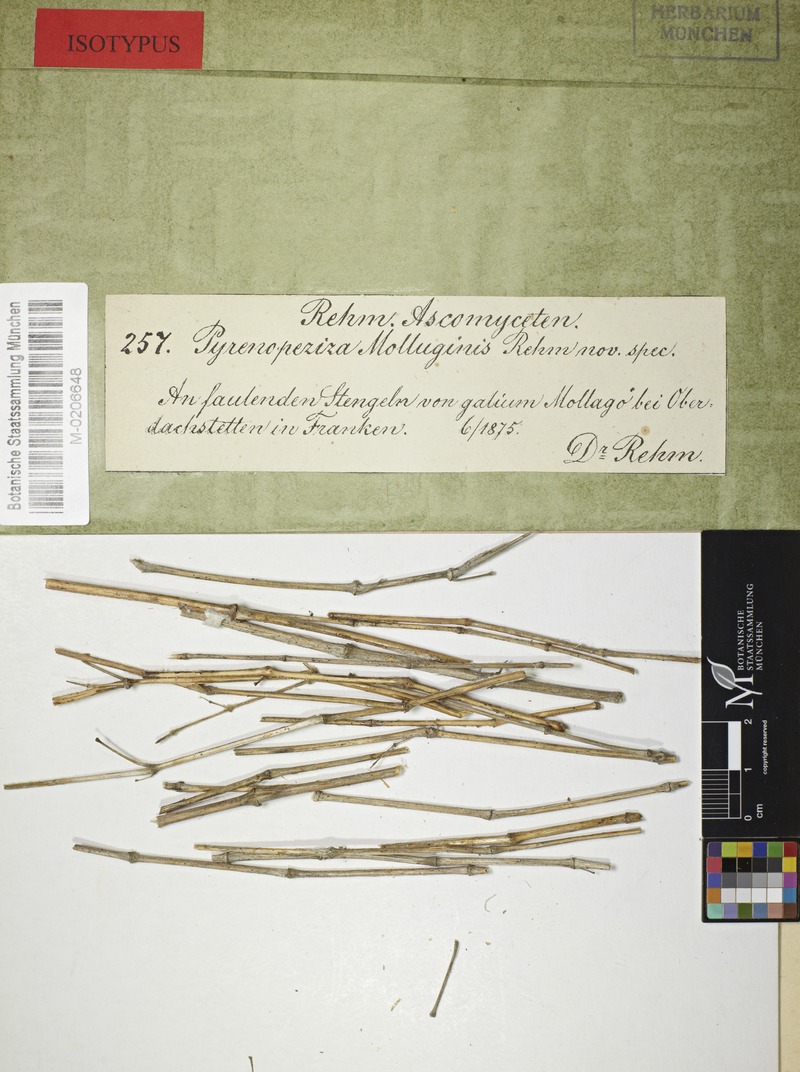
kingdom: Fungi
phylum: Ascomycota
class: Leotiomycetes
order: Helotiales
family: Ploettnerulaceae
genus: Pyrenopeziza
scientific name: Pyrenopeziza galii-veri
